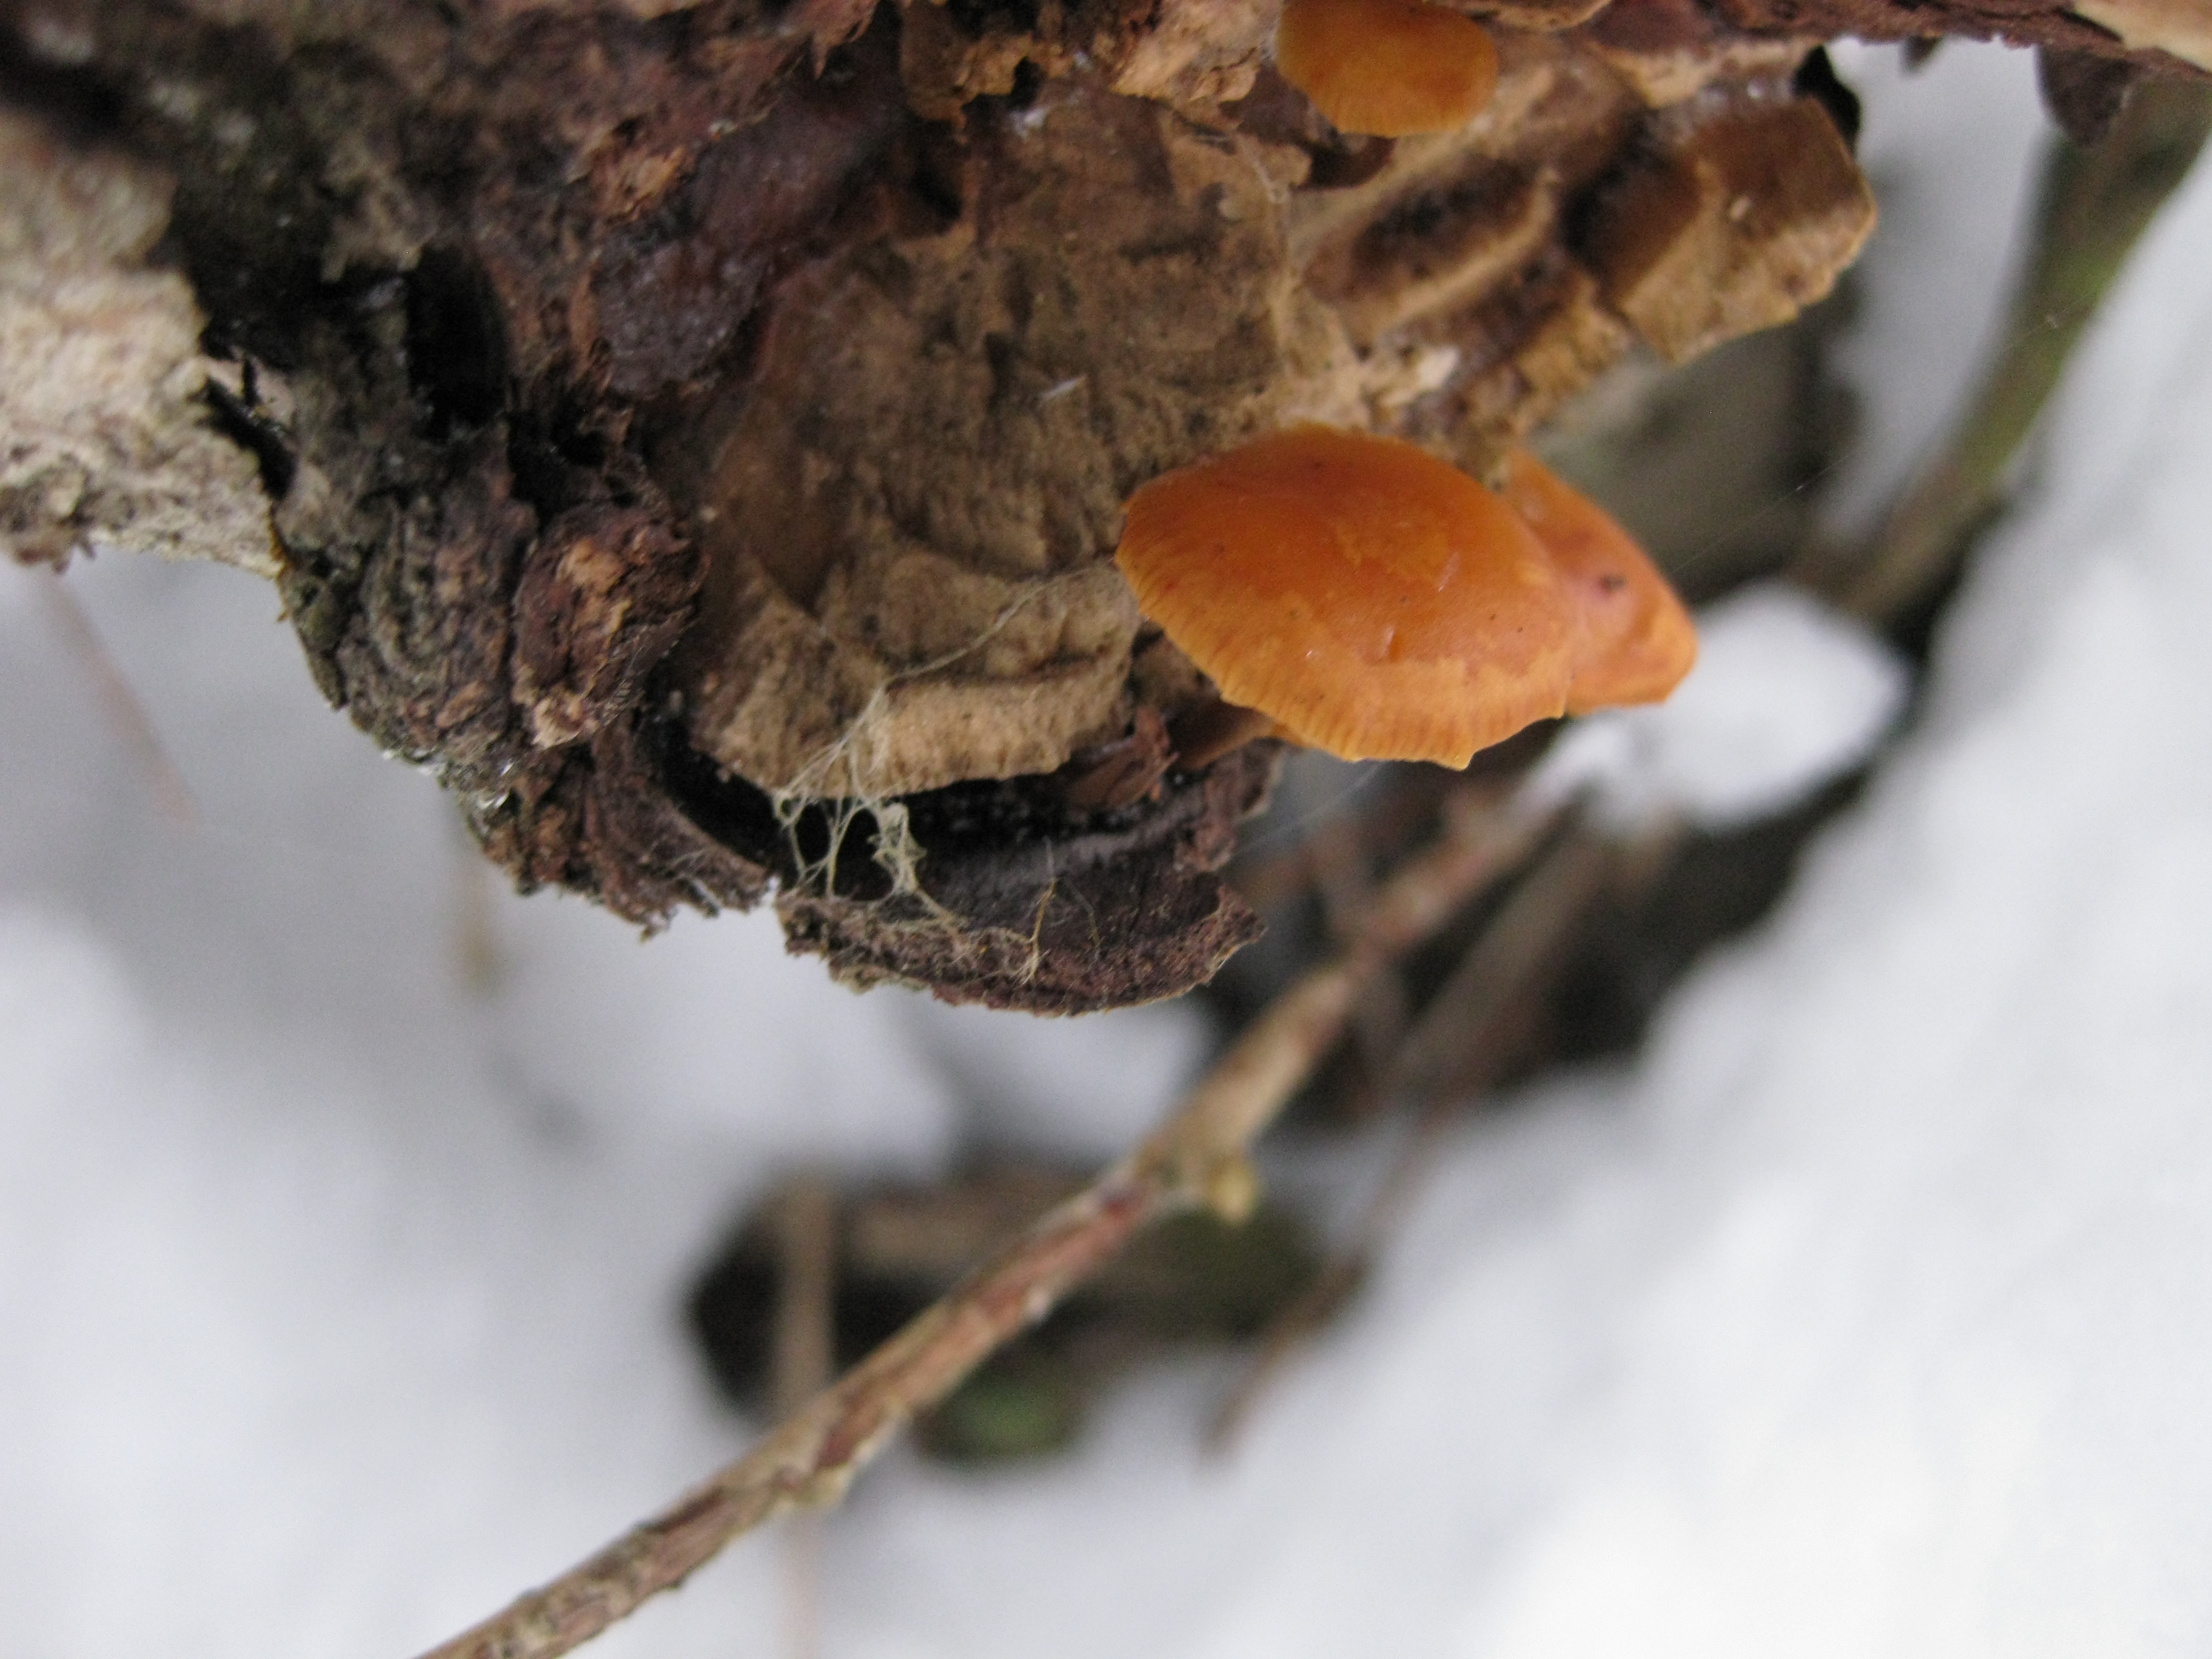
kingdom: Fungi
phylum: Basidiomycota
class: Agaricomycetes
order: Agaricales
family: Physalacriaceae
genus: Flammulina
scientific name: Flammulina velutipes
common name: Velvet shank
